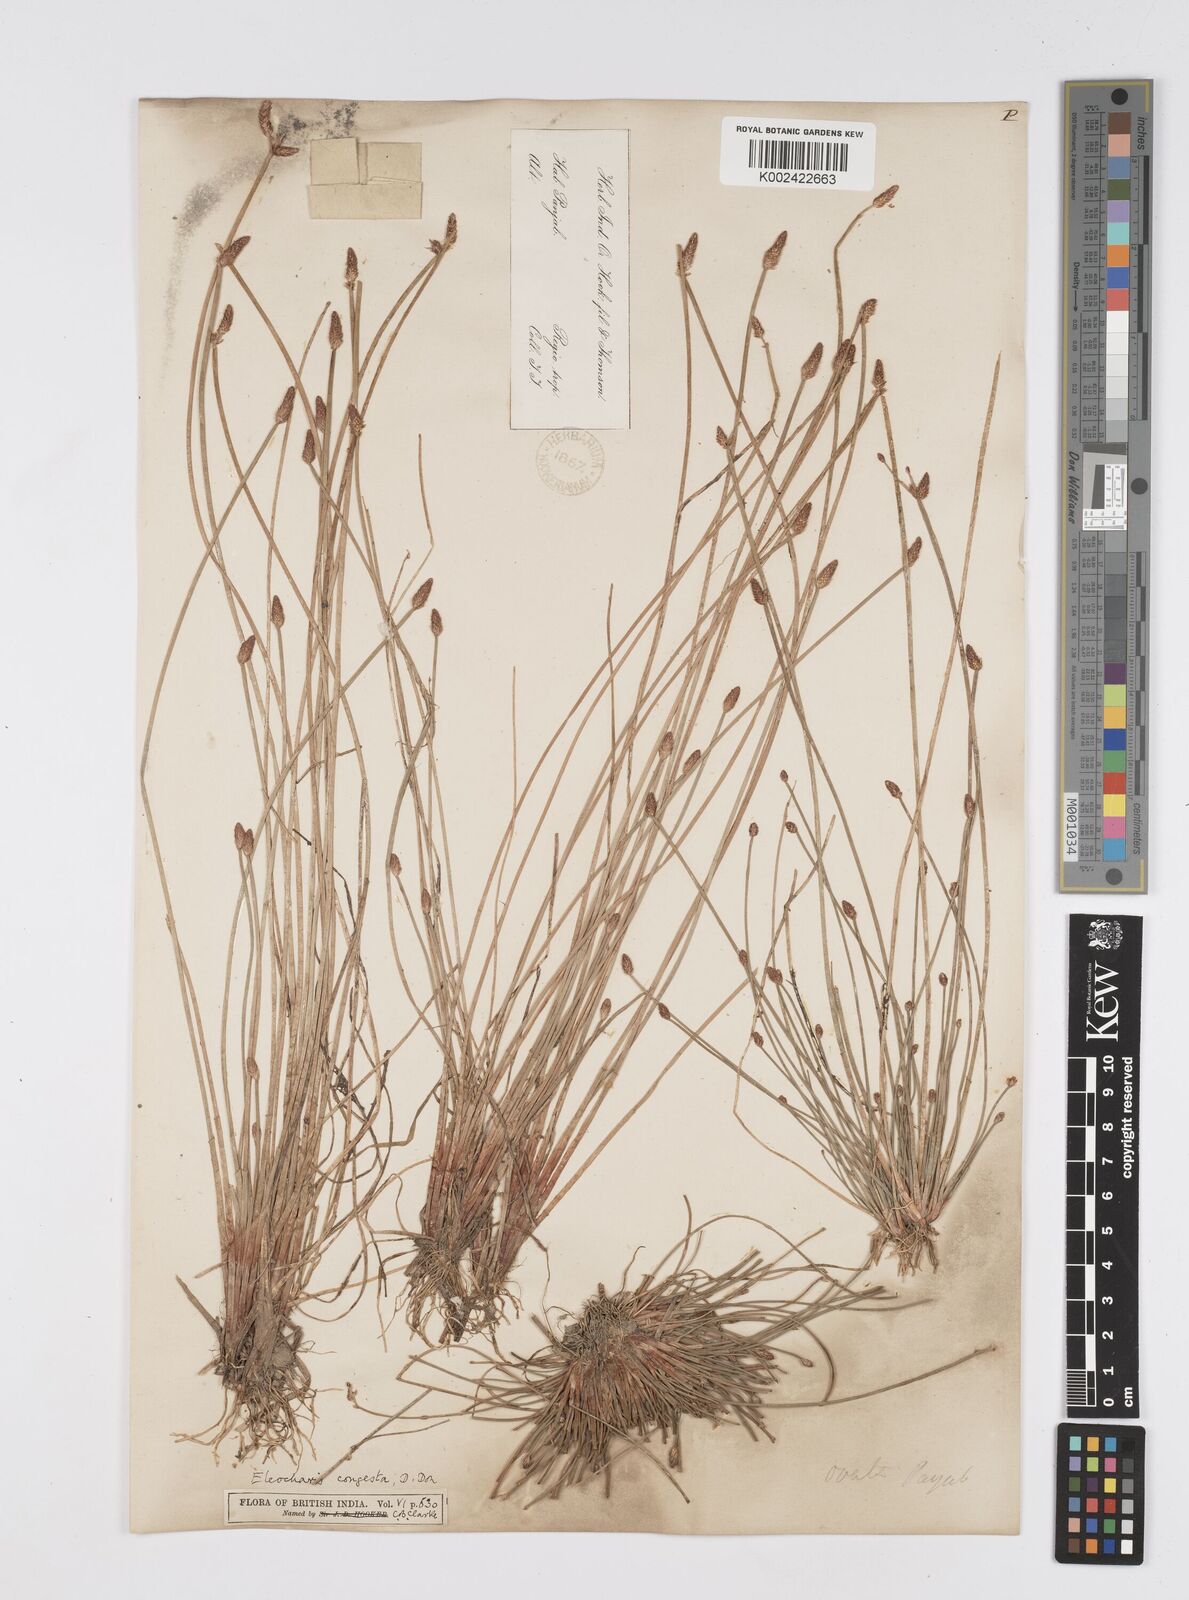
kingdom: Plantae
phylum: Tracheophyta
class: Liliopsida
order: Poales
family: Cyperaceae
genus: Eleocharis
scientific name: Eleocharis congesta
